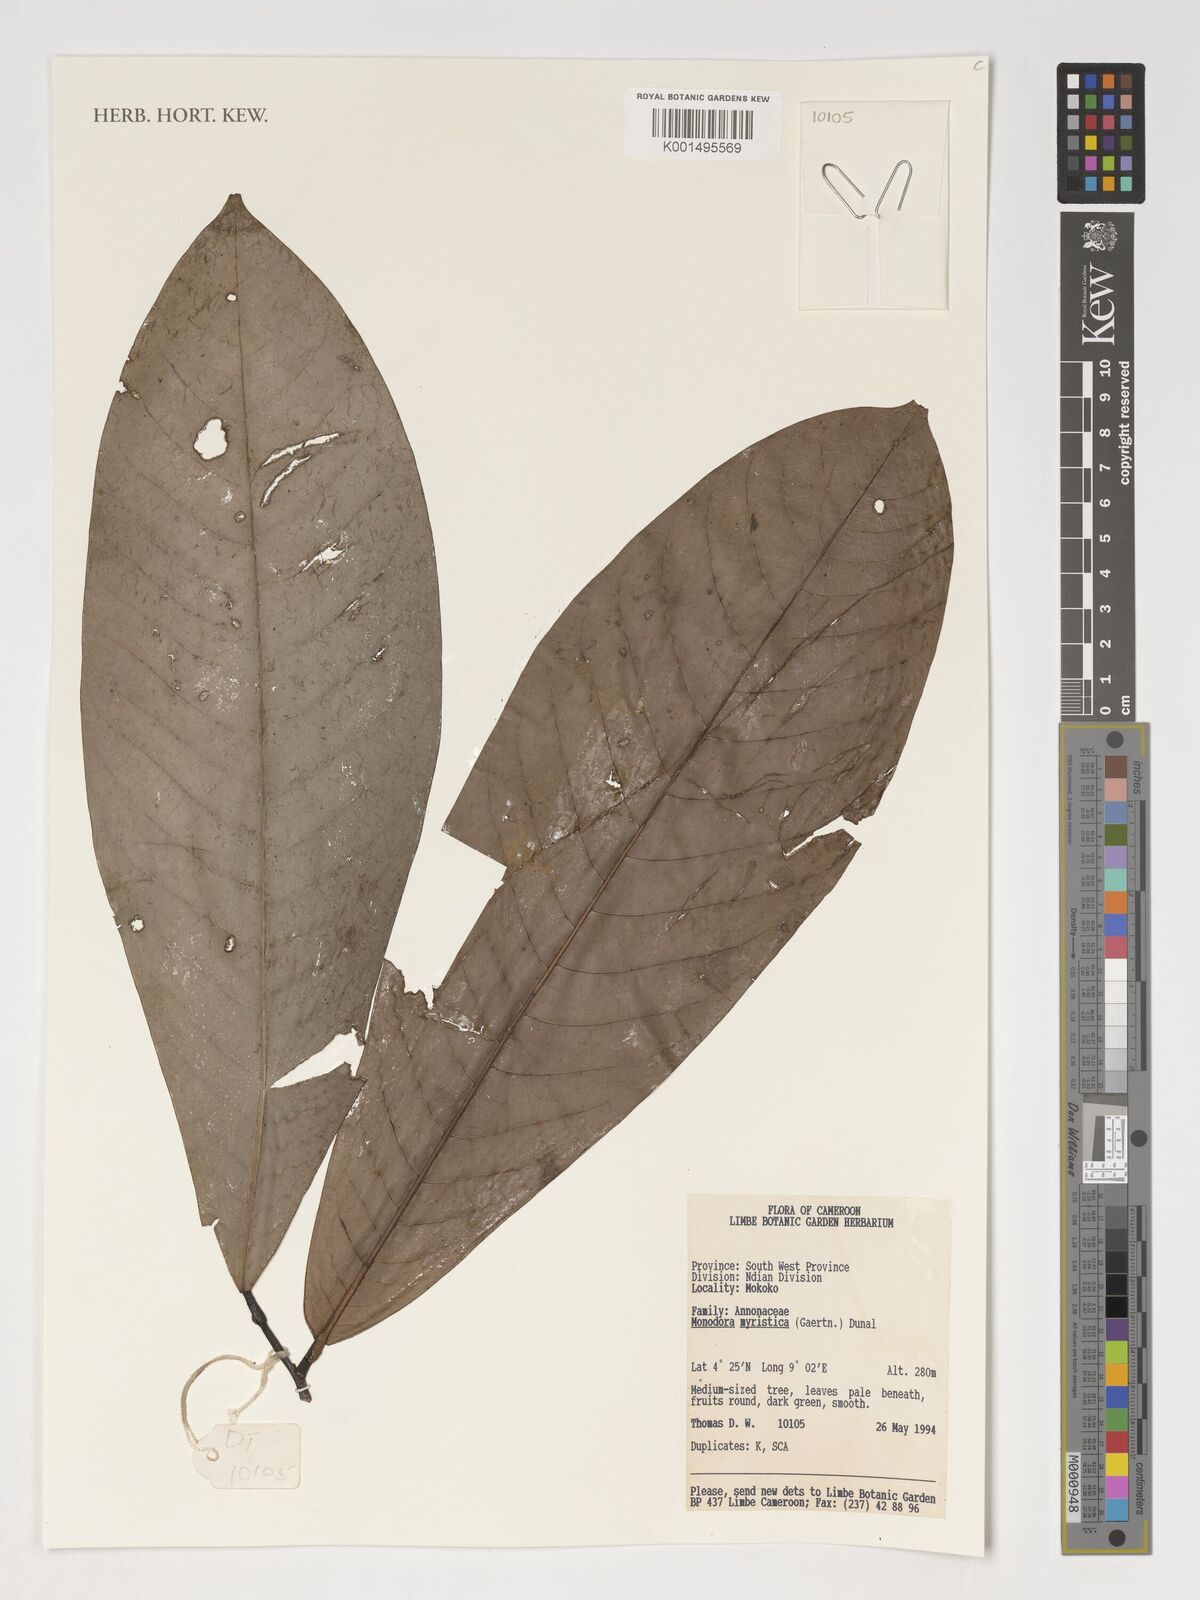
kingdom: Plantae
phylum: Tracheophyta
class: Magnoliopsida
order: Magnoliales
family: Annonaceae
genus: Monodora
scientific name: Monodora myristica
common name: African nutmeg
